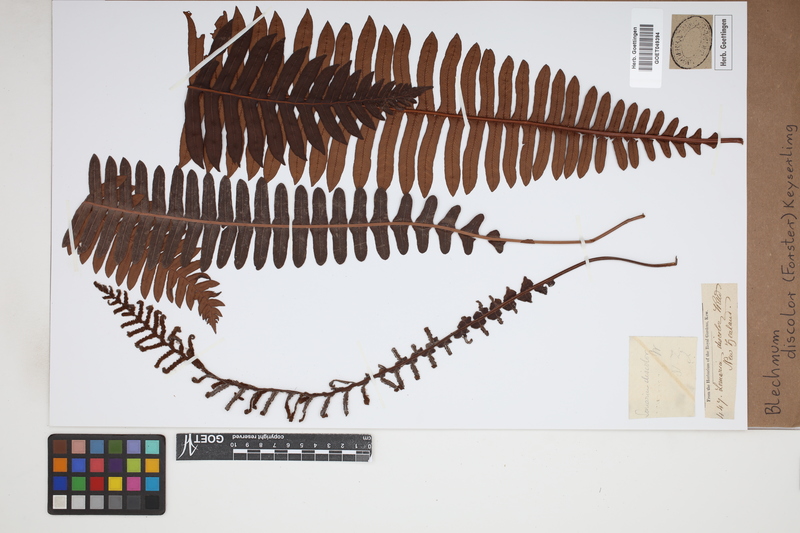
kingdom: Plantae
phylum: Tracheophyta
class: Polypodiopsida
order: Polypodiales
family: Blechnaceae
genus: Lomaria
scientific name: Lomaria discolor
